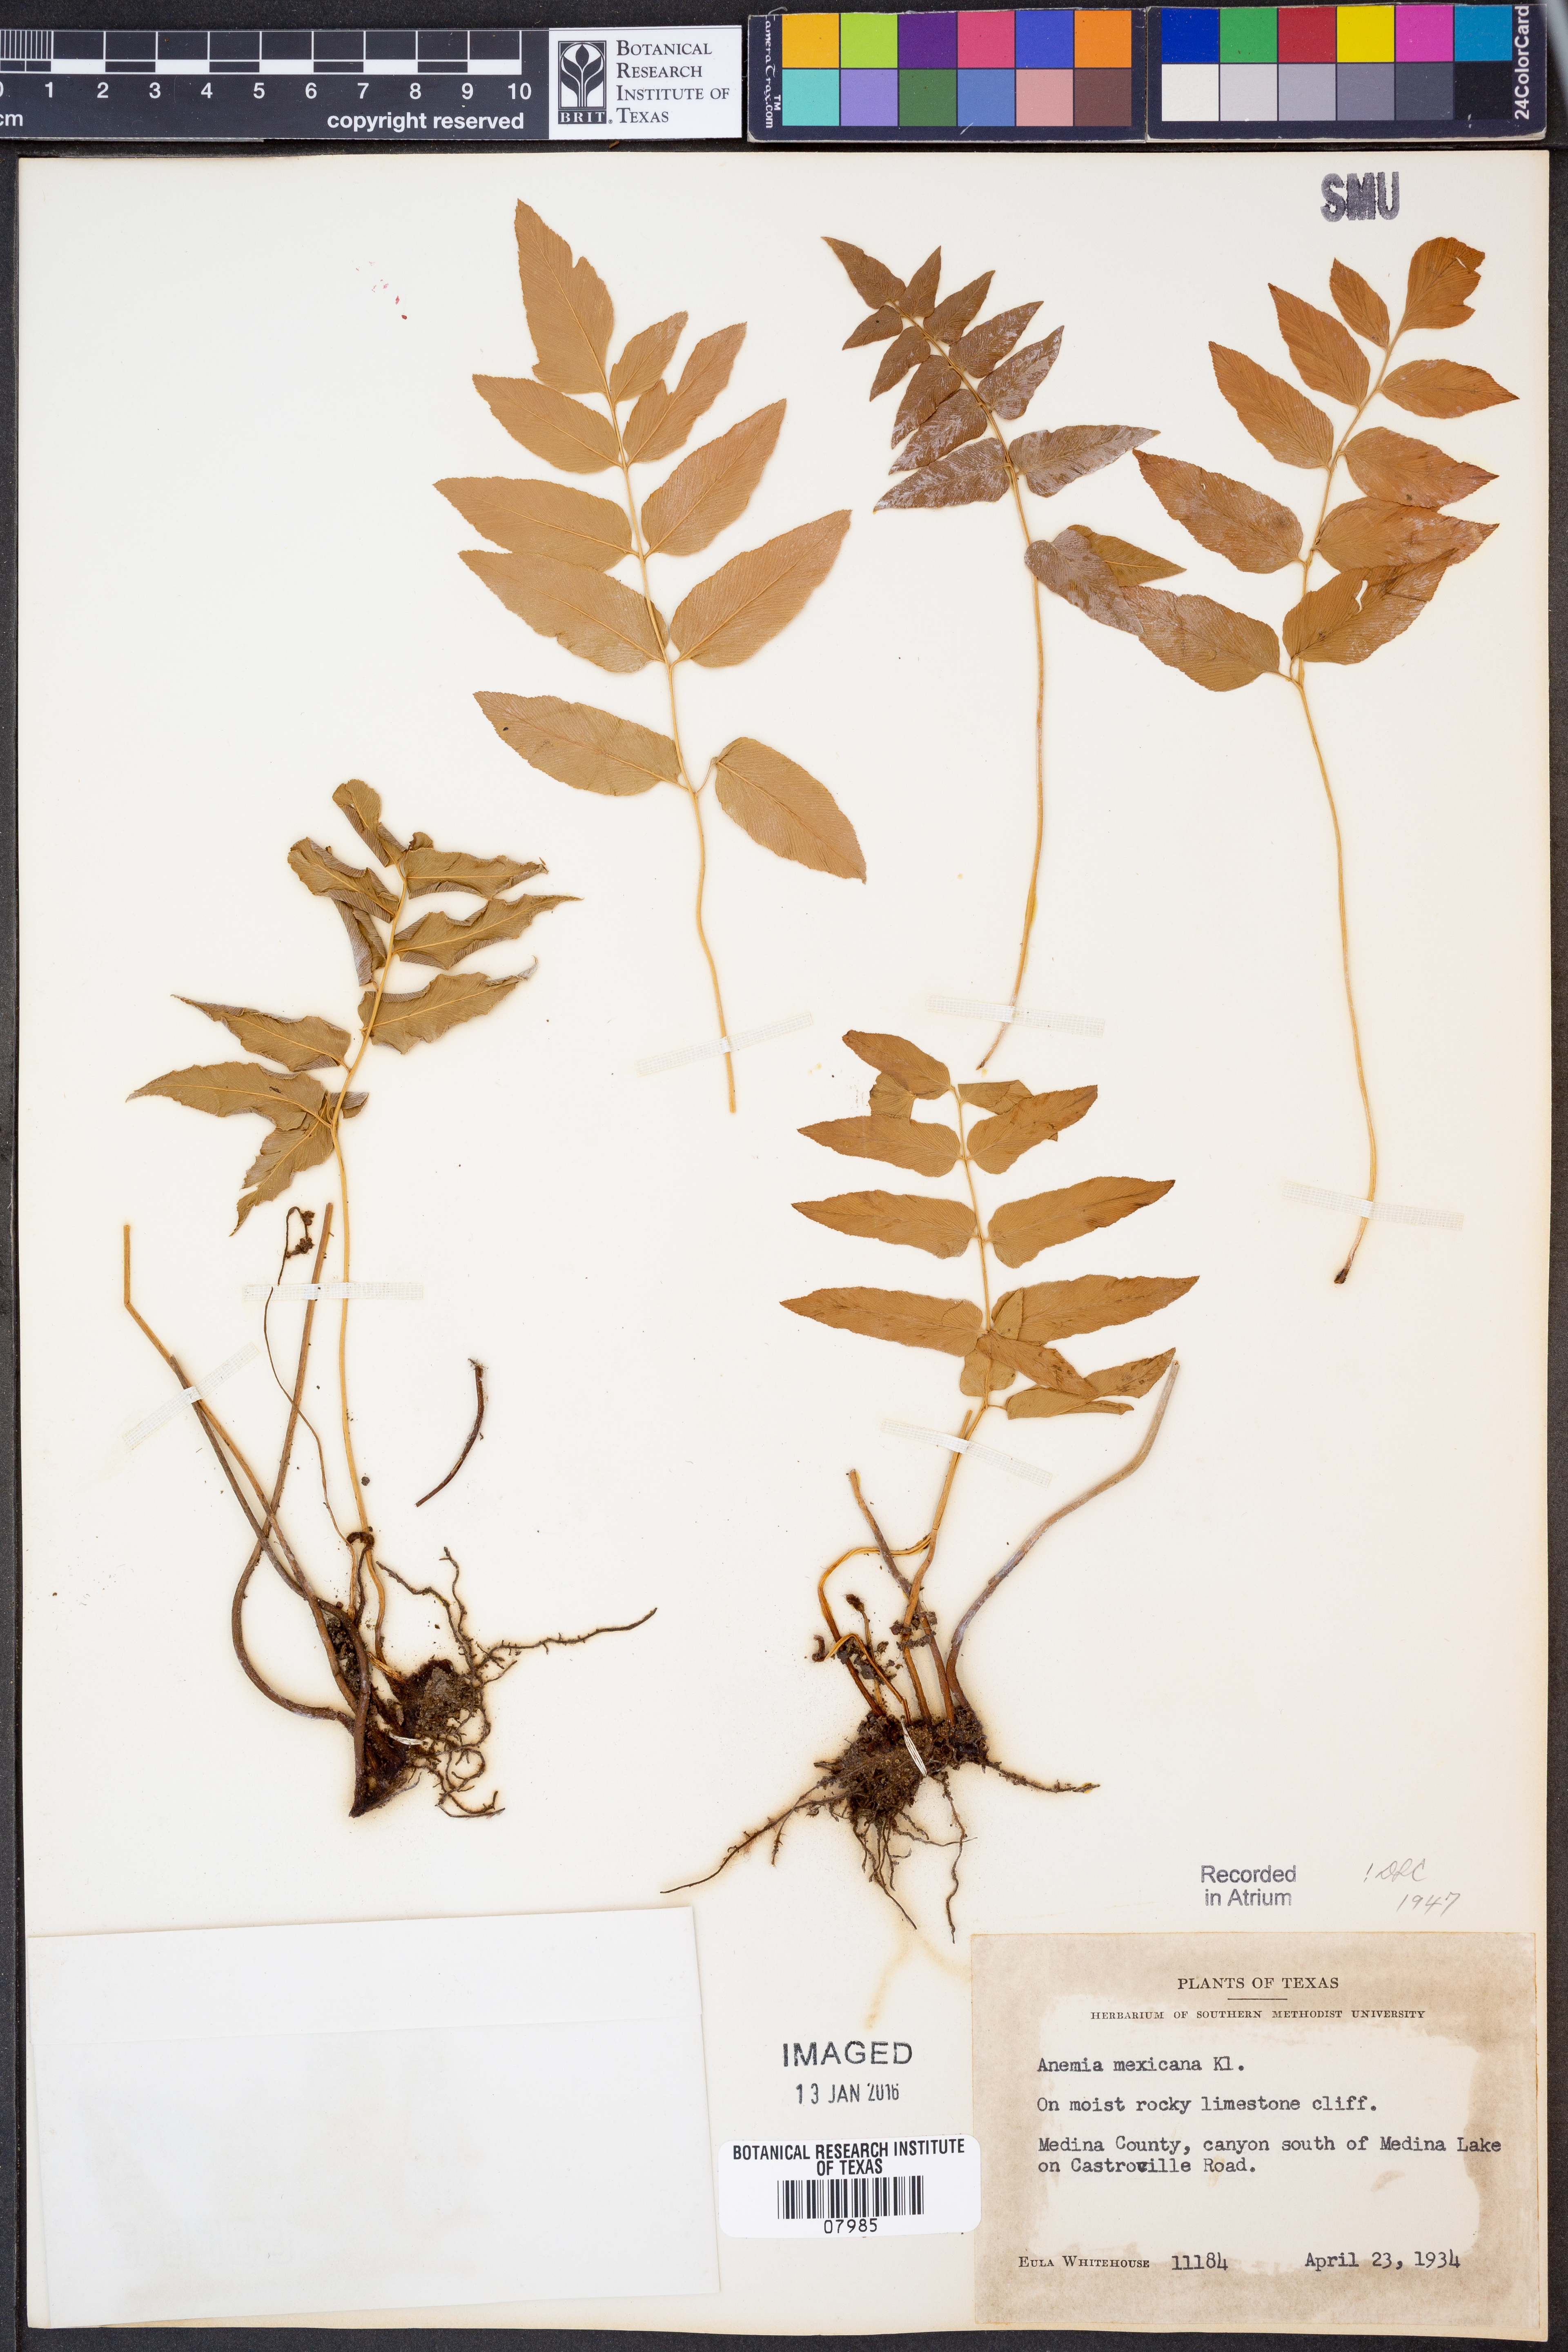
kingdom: Plantae
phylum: Tracheophyta
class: Polypodiopsida
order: Schizaeales
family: Anemiaceae
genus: Anemia
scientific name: Anemia mexicana
